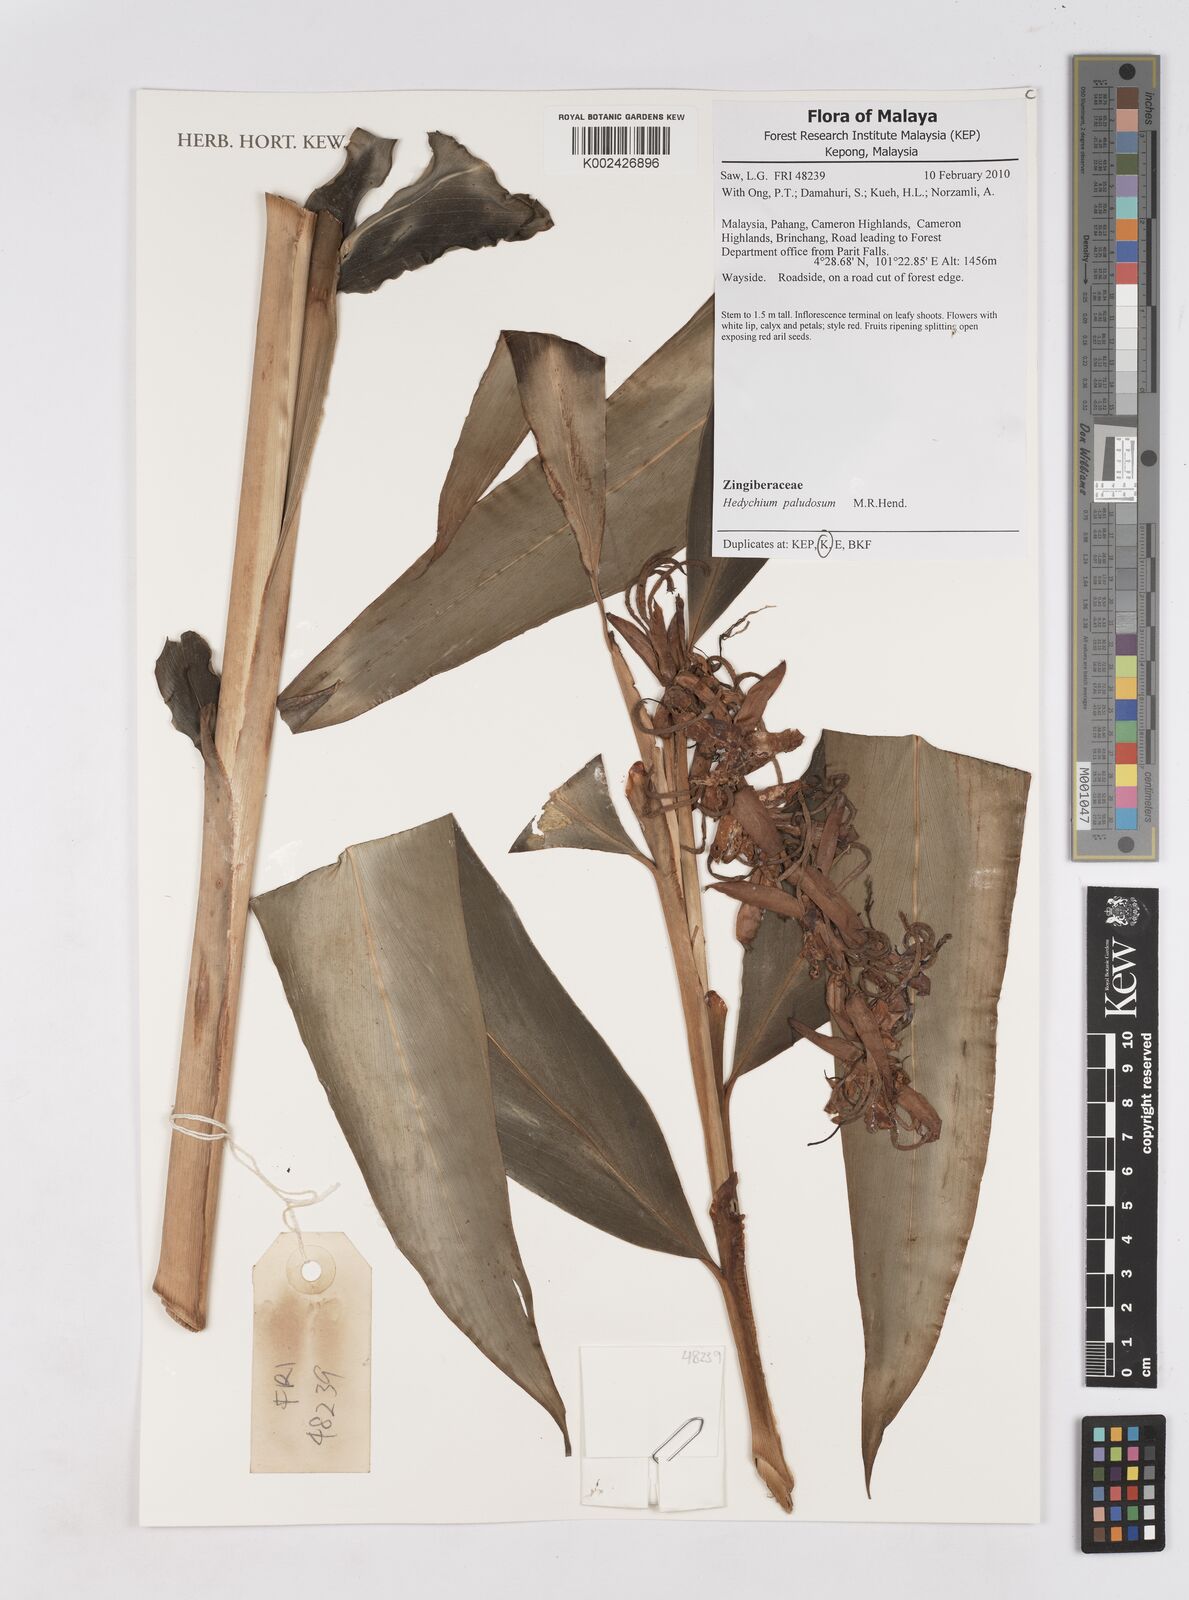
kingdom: Plantae
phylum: Tracheophyta
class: Liliopsida
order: Zingiberales
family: Zingiberaceae
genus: Hedychium
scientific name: Hedychium paludosum
